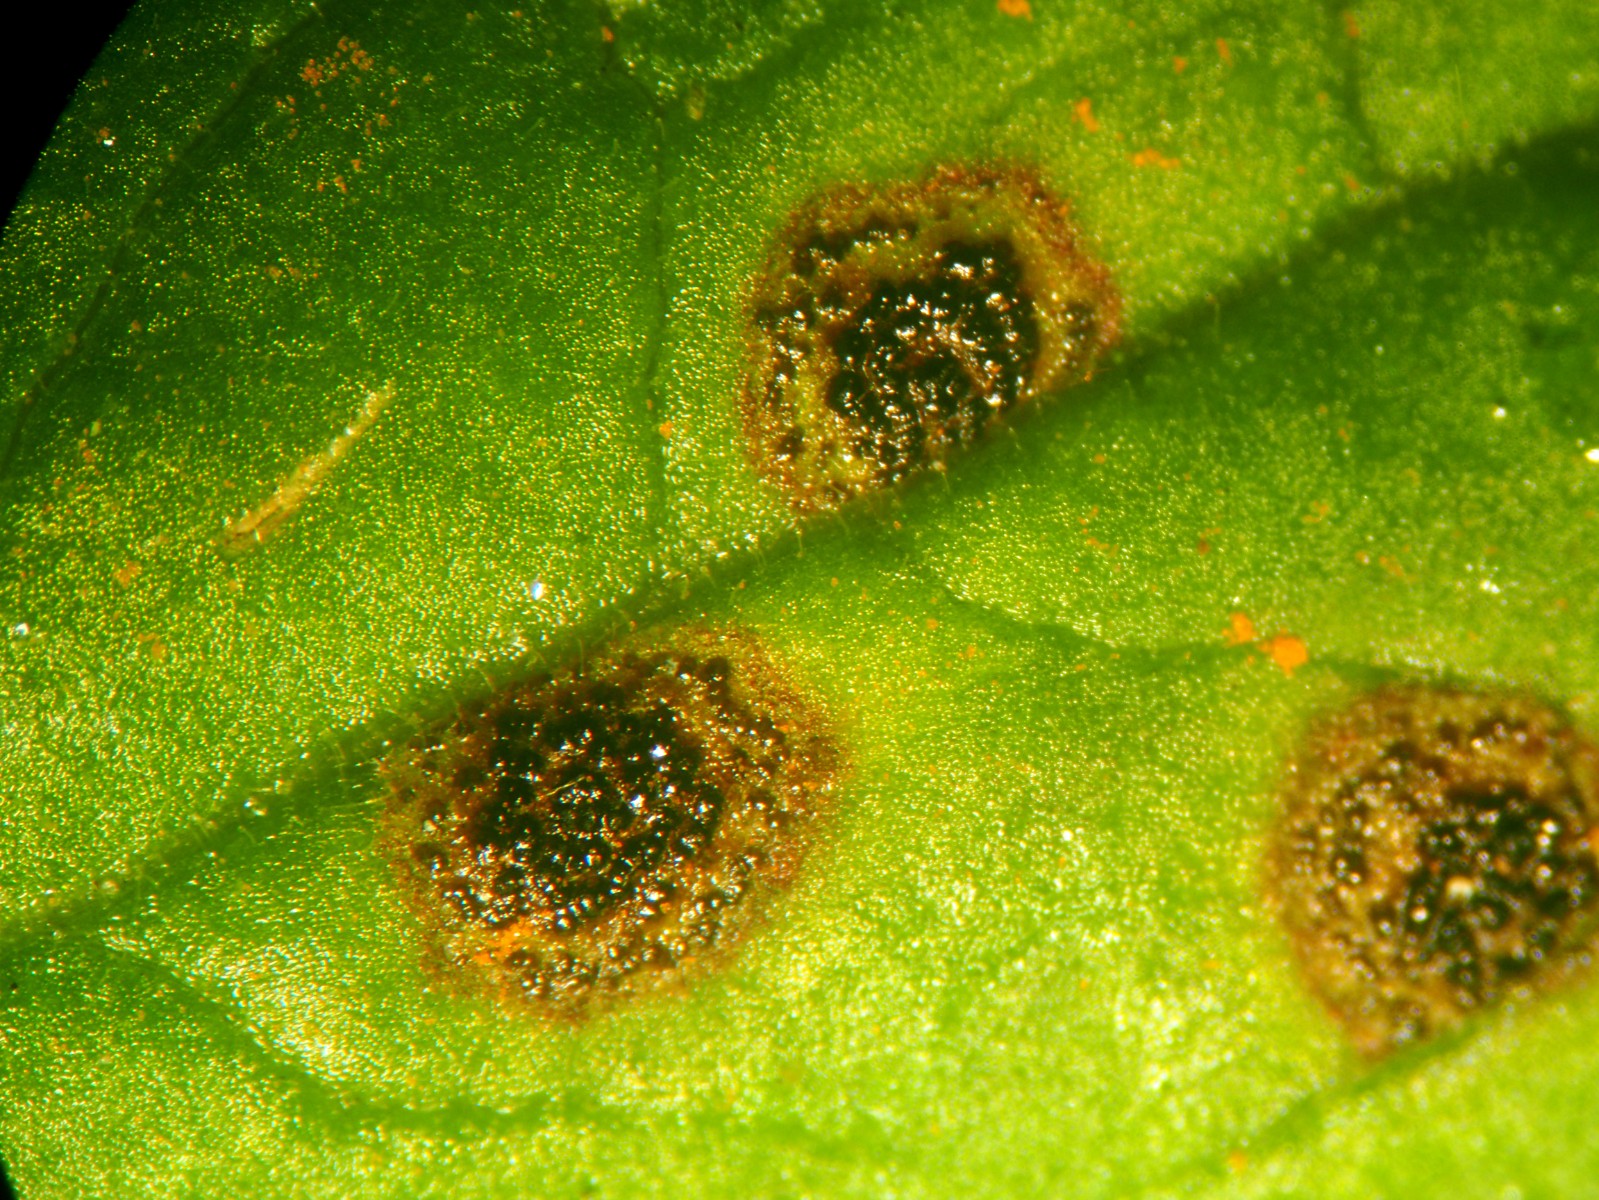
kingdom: Fungi
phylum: Ascomycota
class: Dothideomycetes
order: Venturiales
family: Venturiaceae
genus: Venturia
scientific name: Venturia maculiformis
